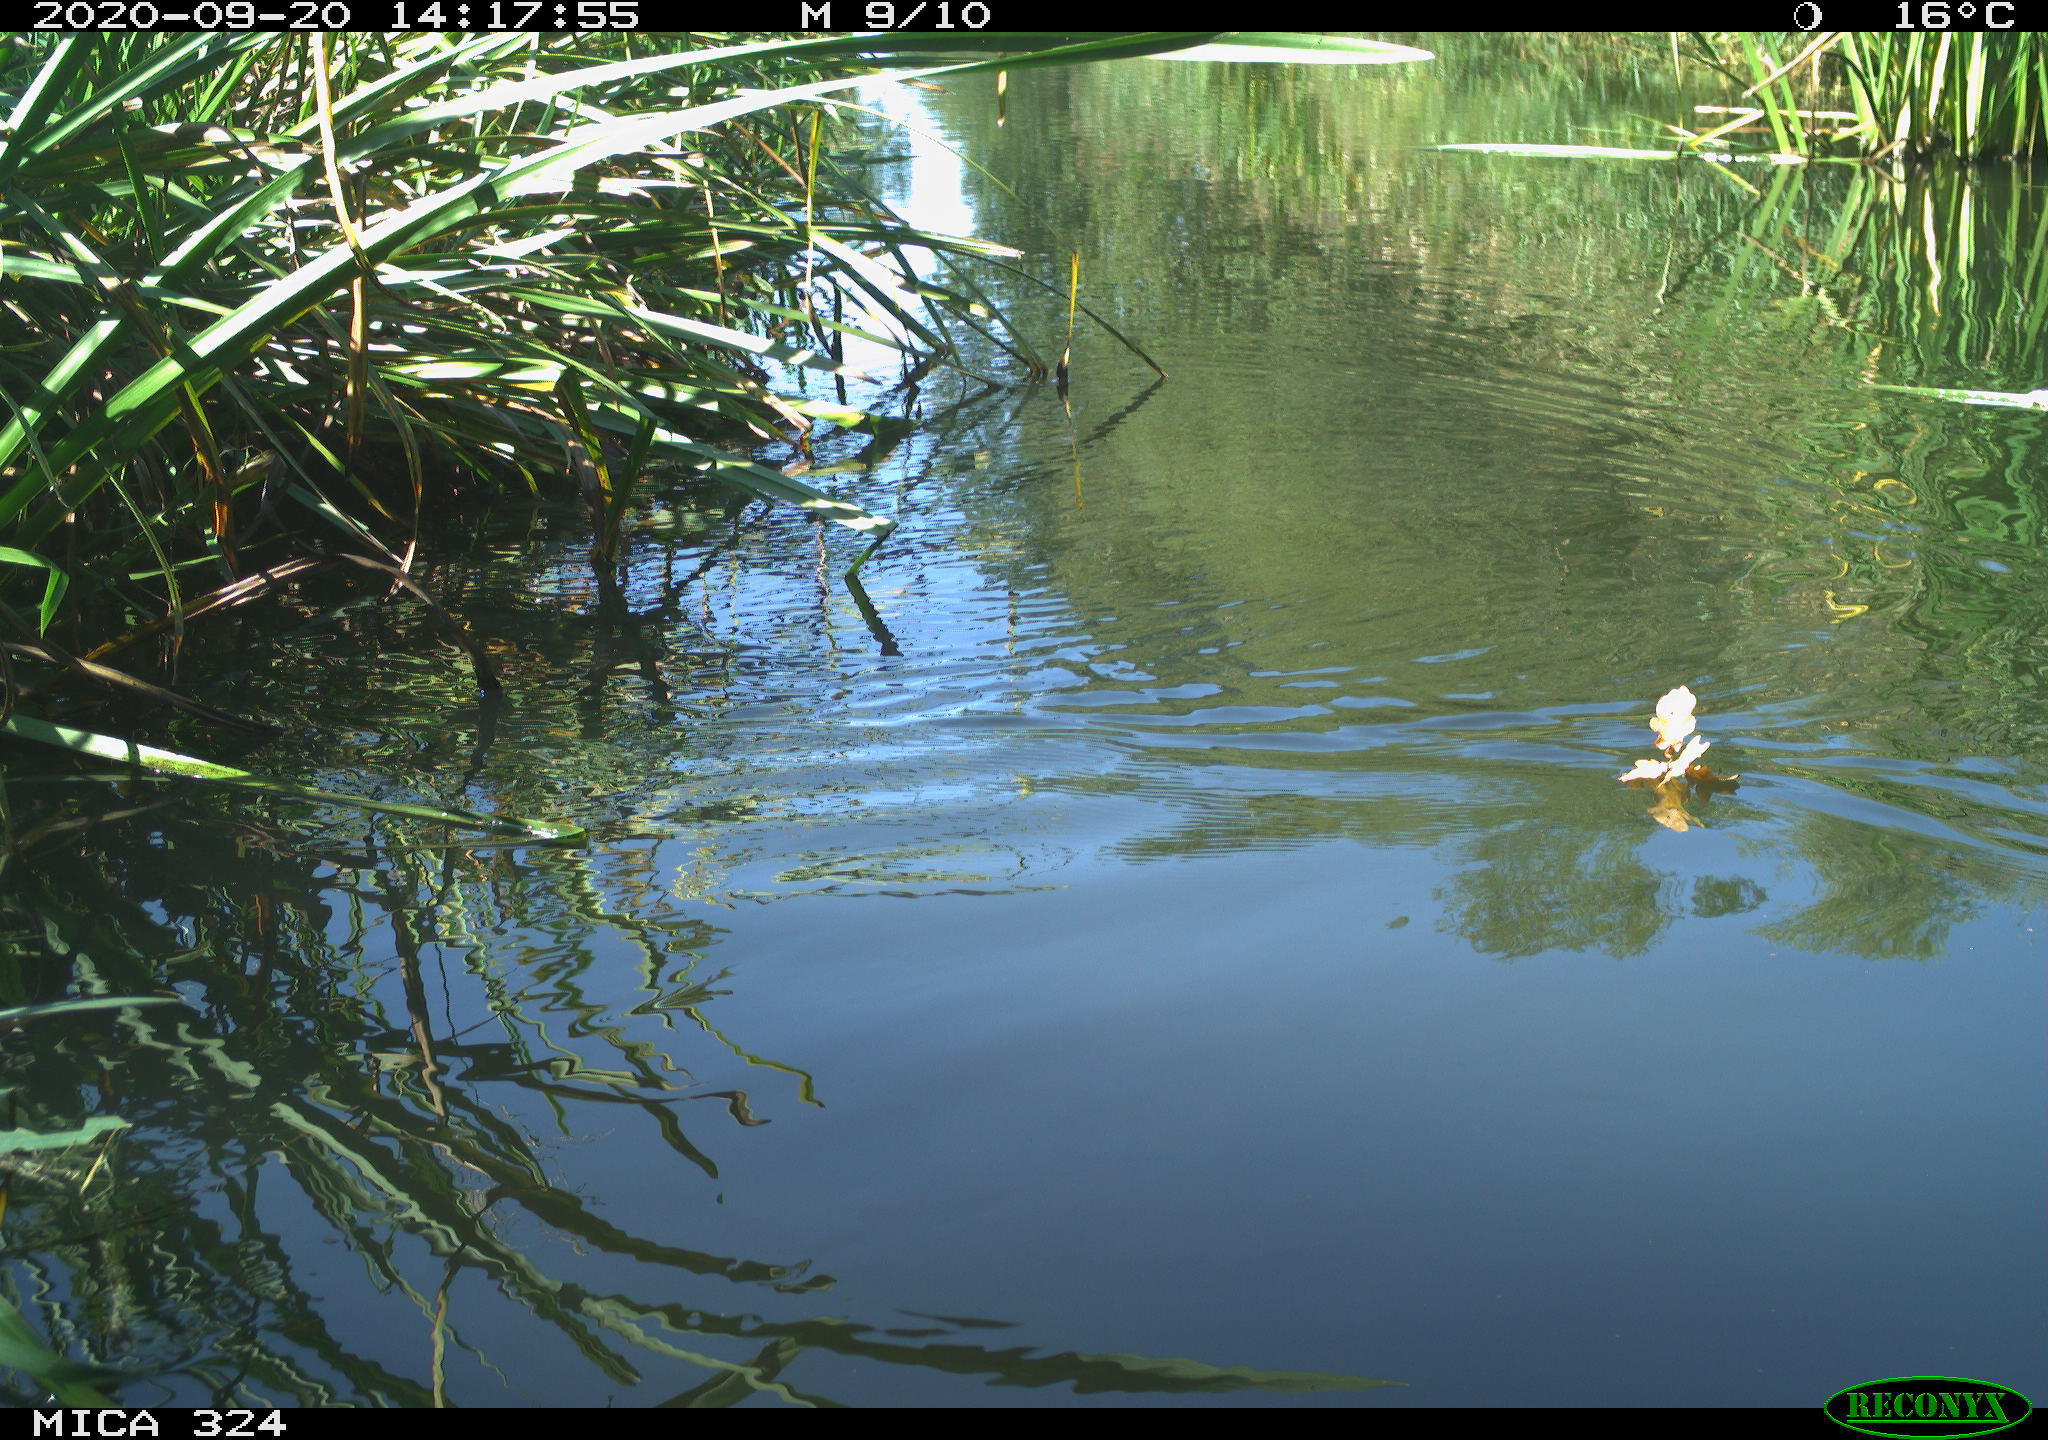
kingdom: Animalia
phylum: Chordata
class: Aves
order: Gruiformes
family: Rallidae
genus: Gallinula
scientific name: Gallinula chloropus
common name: Common moorhen
